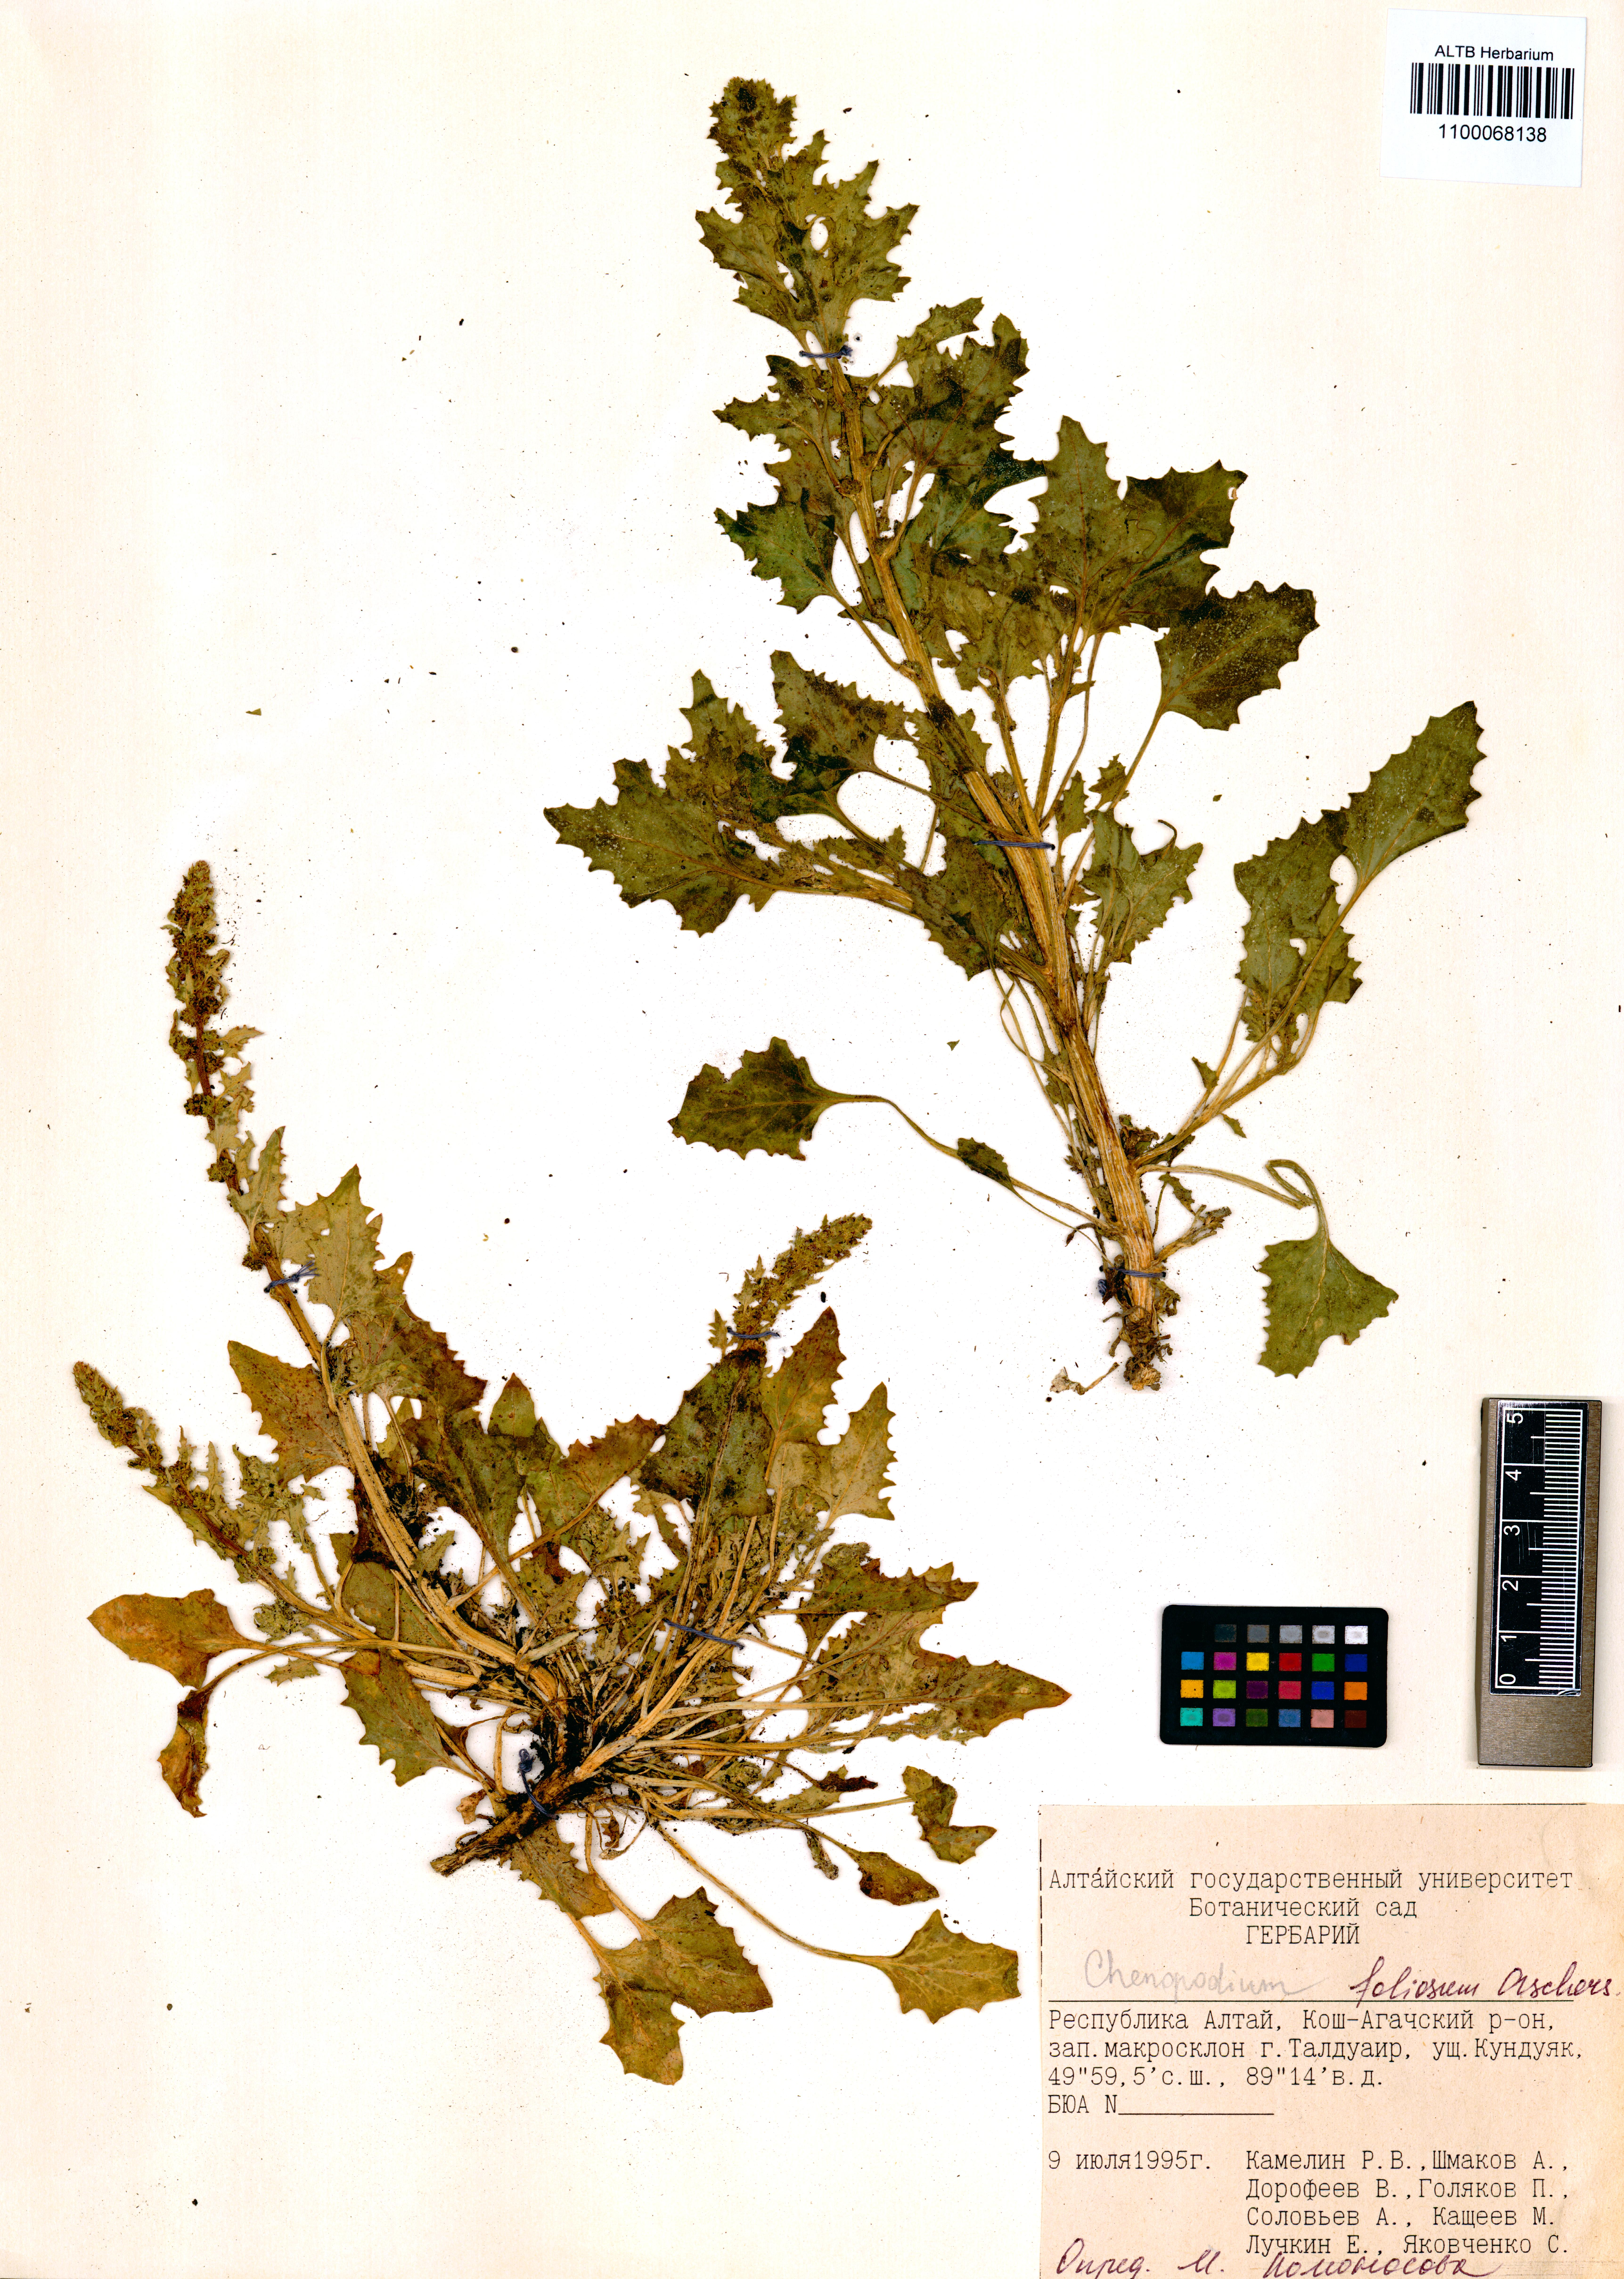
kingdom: Plantae
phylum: Tracheophyta
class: Magnoliopsida
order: Caryophyllales
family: Amaranthaceae
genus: Blitum
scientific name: Blitum virgatum
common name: Strawberry goosefoot
